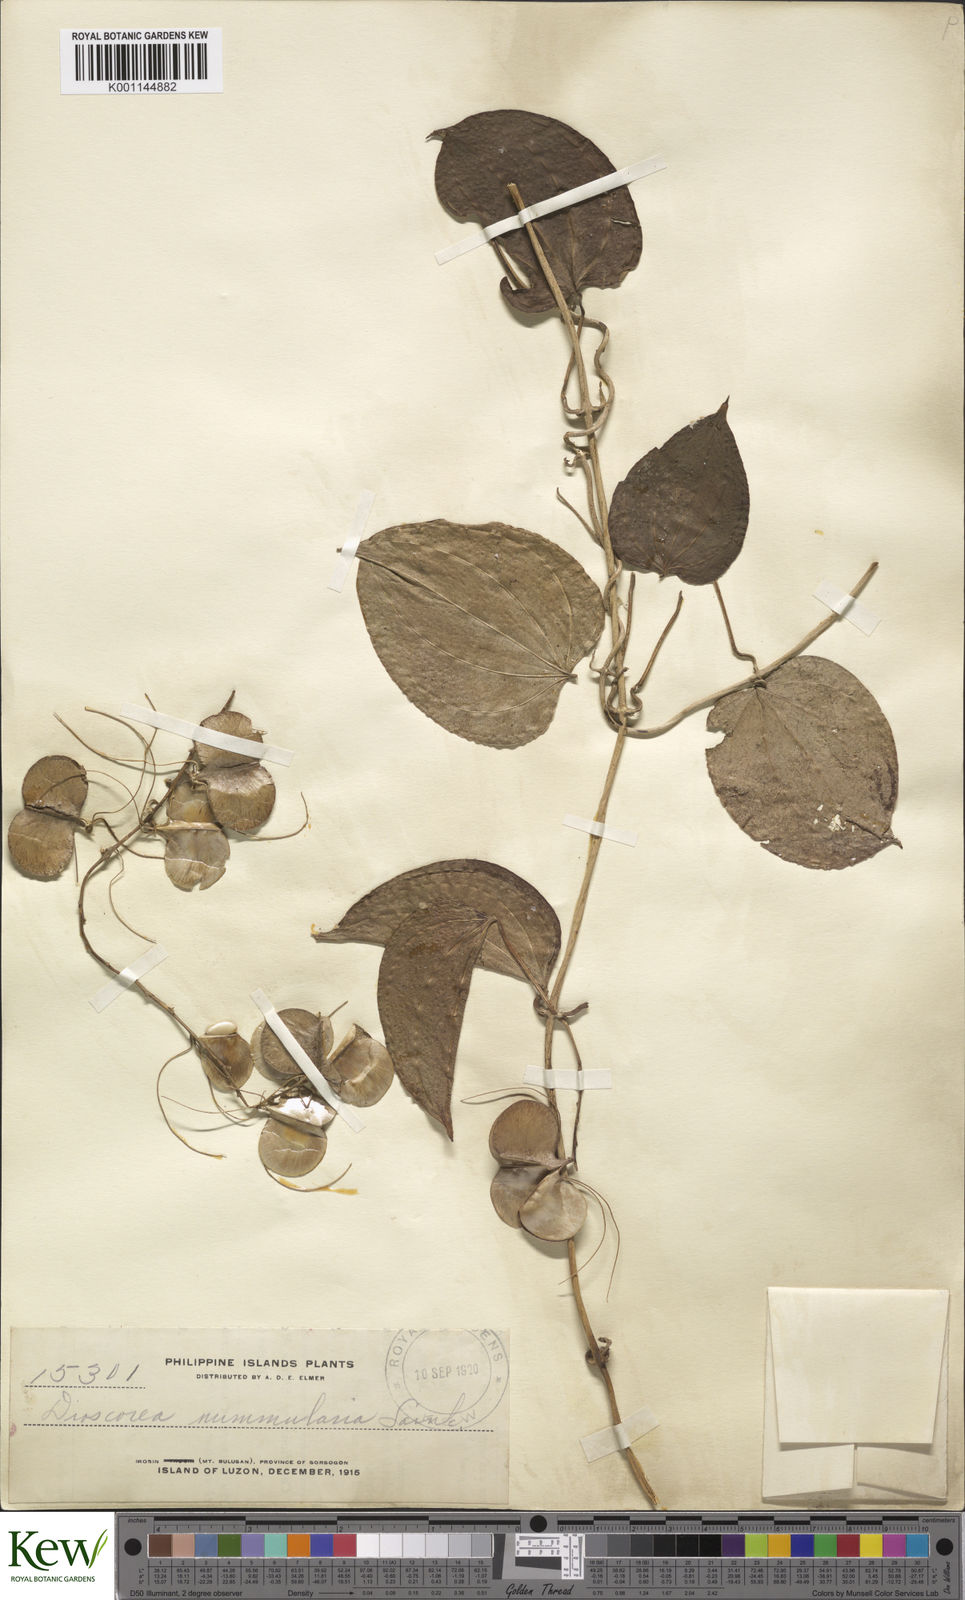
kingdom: Plantae
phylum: Tracheophyta
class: Liliopsida
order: Dioscoreales
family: Dioscoreaceae
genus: Dioscorea
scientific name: Dioscorea nummularia
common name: Pacific yam
